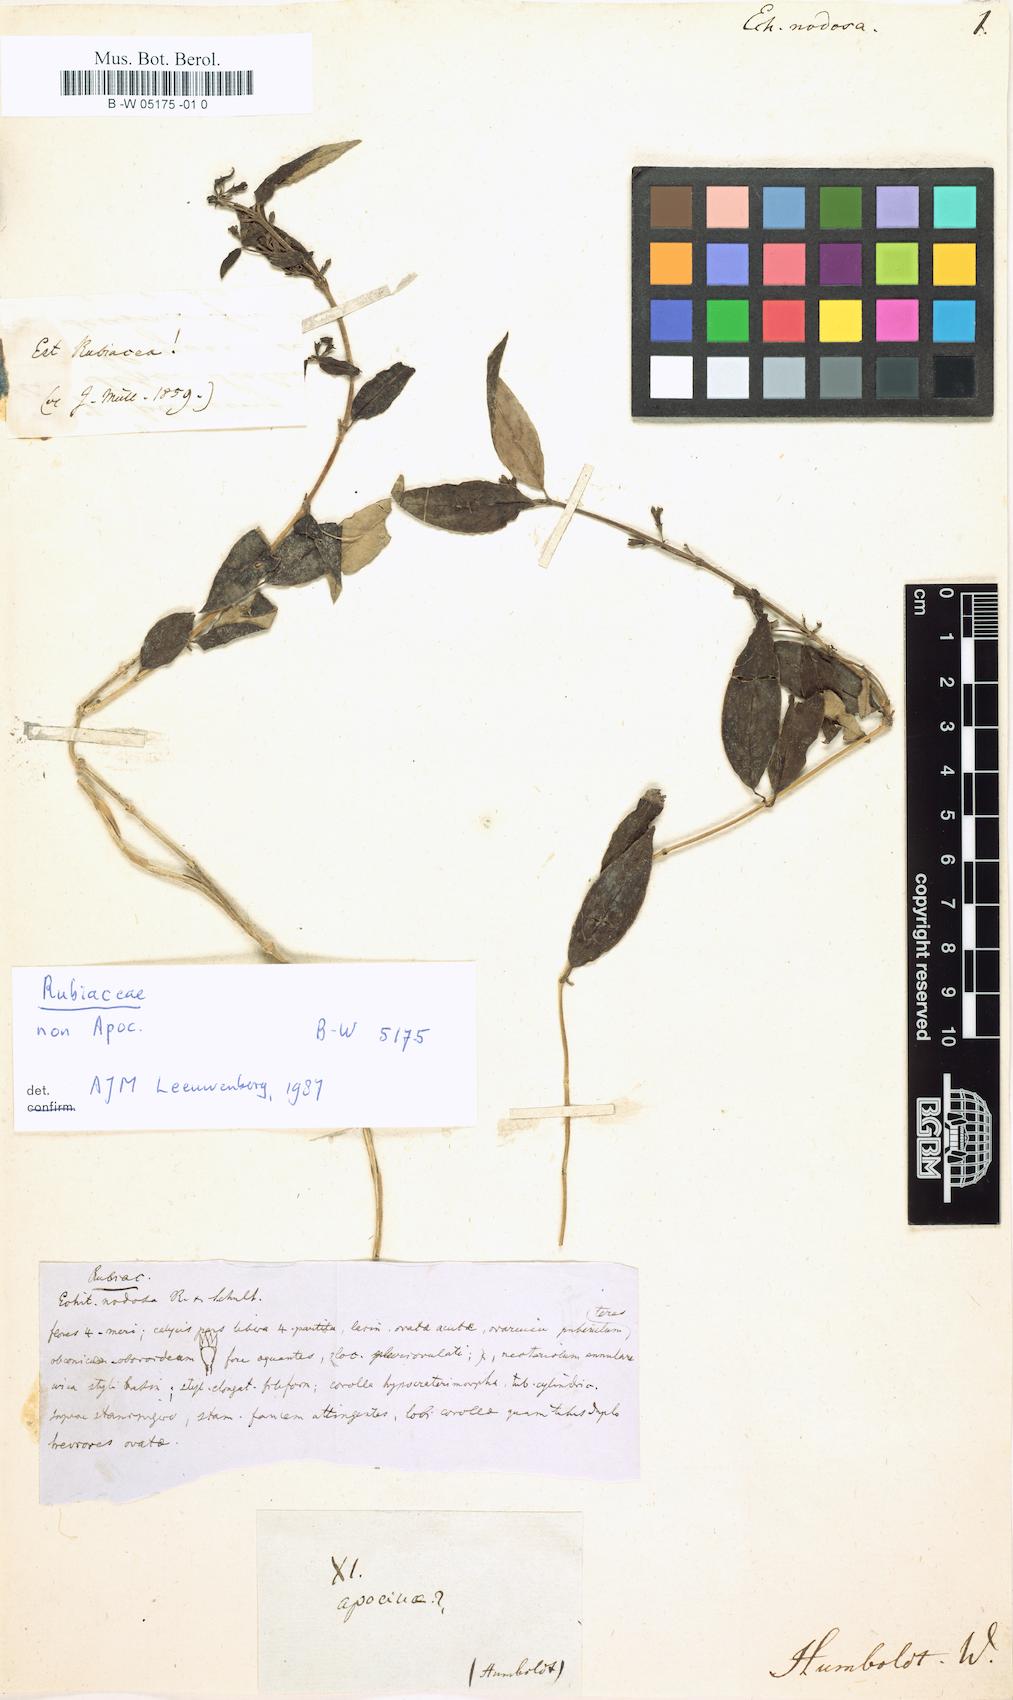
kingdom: Plantae
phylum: Tracheophyta
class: Magnoliopsida
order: Gentianales
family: Apocynaceae
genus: Echites
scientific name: Echites nodosus
